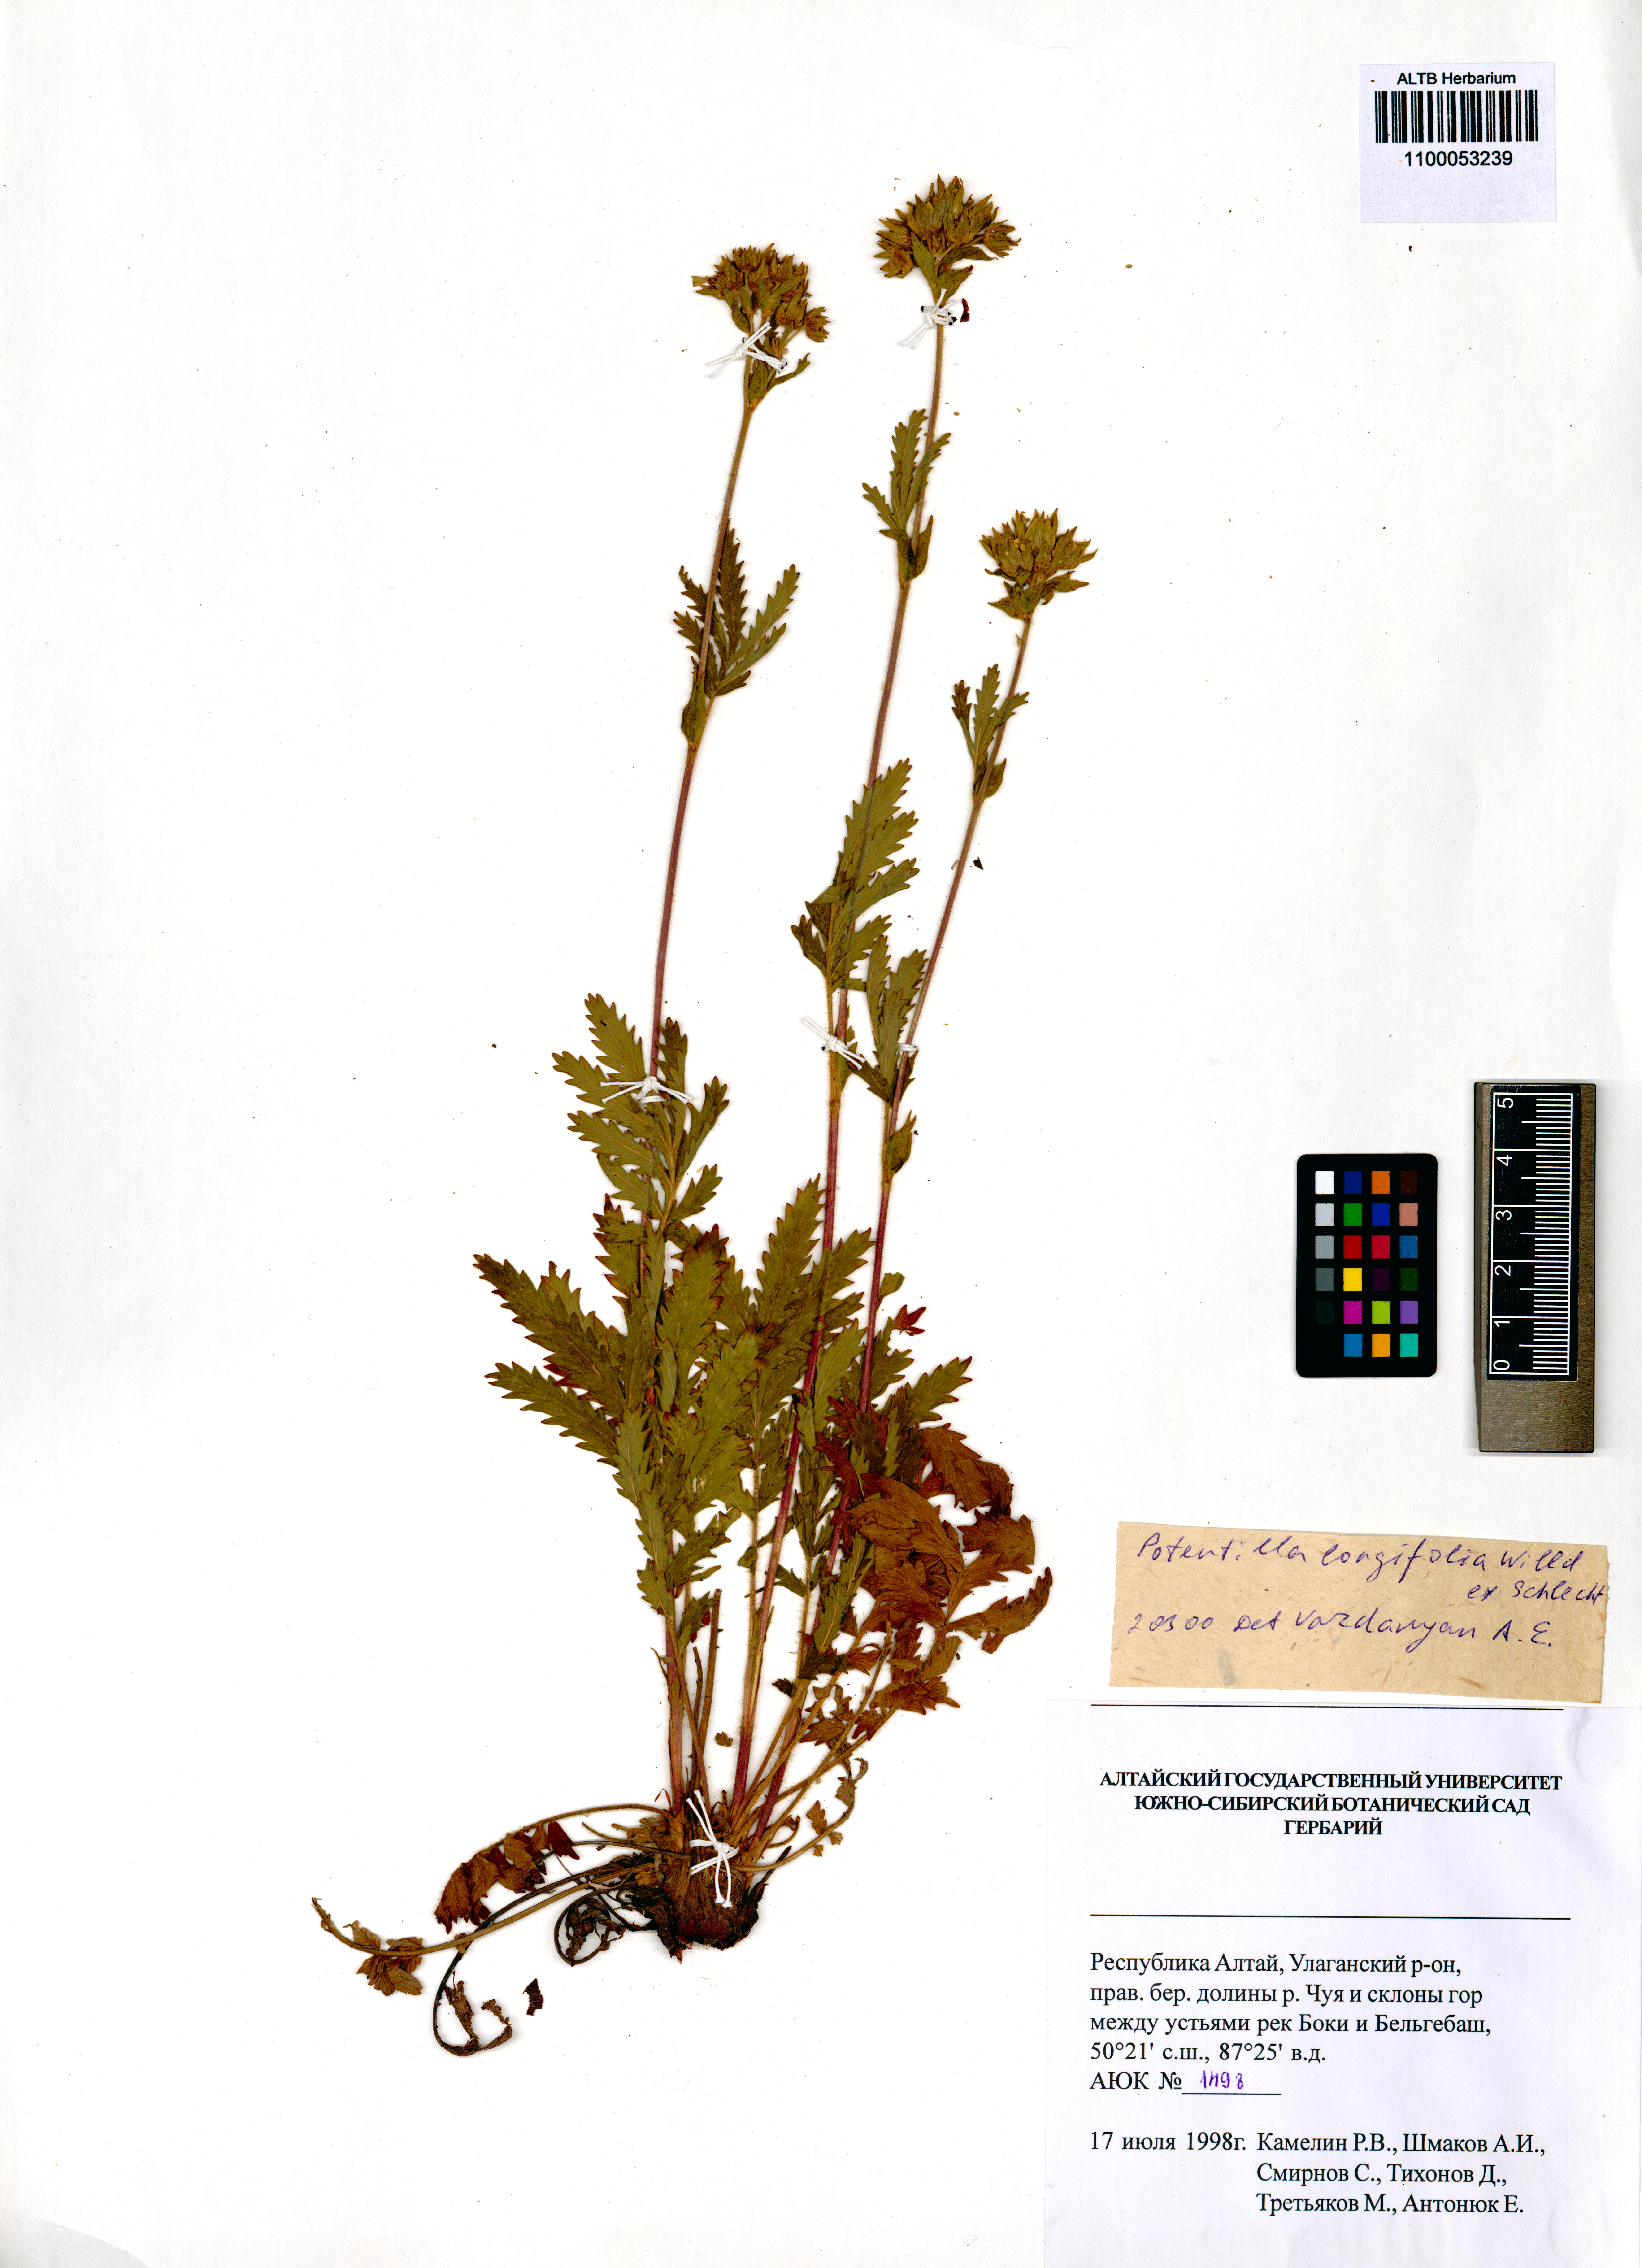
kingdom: Plantae
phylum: Tracheophyta
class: Magnoliopsida
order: Rosales
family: Rosaceae
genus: Potentilla
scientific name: Potentilla longifolia
